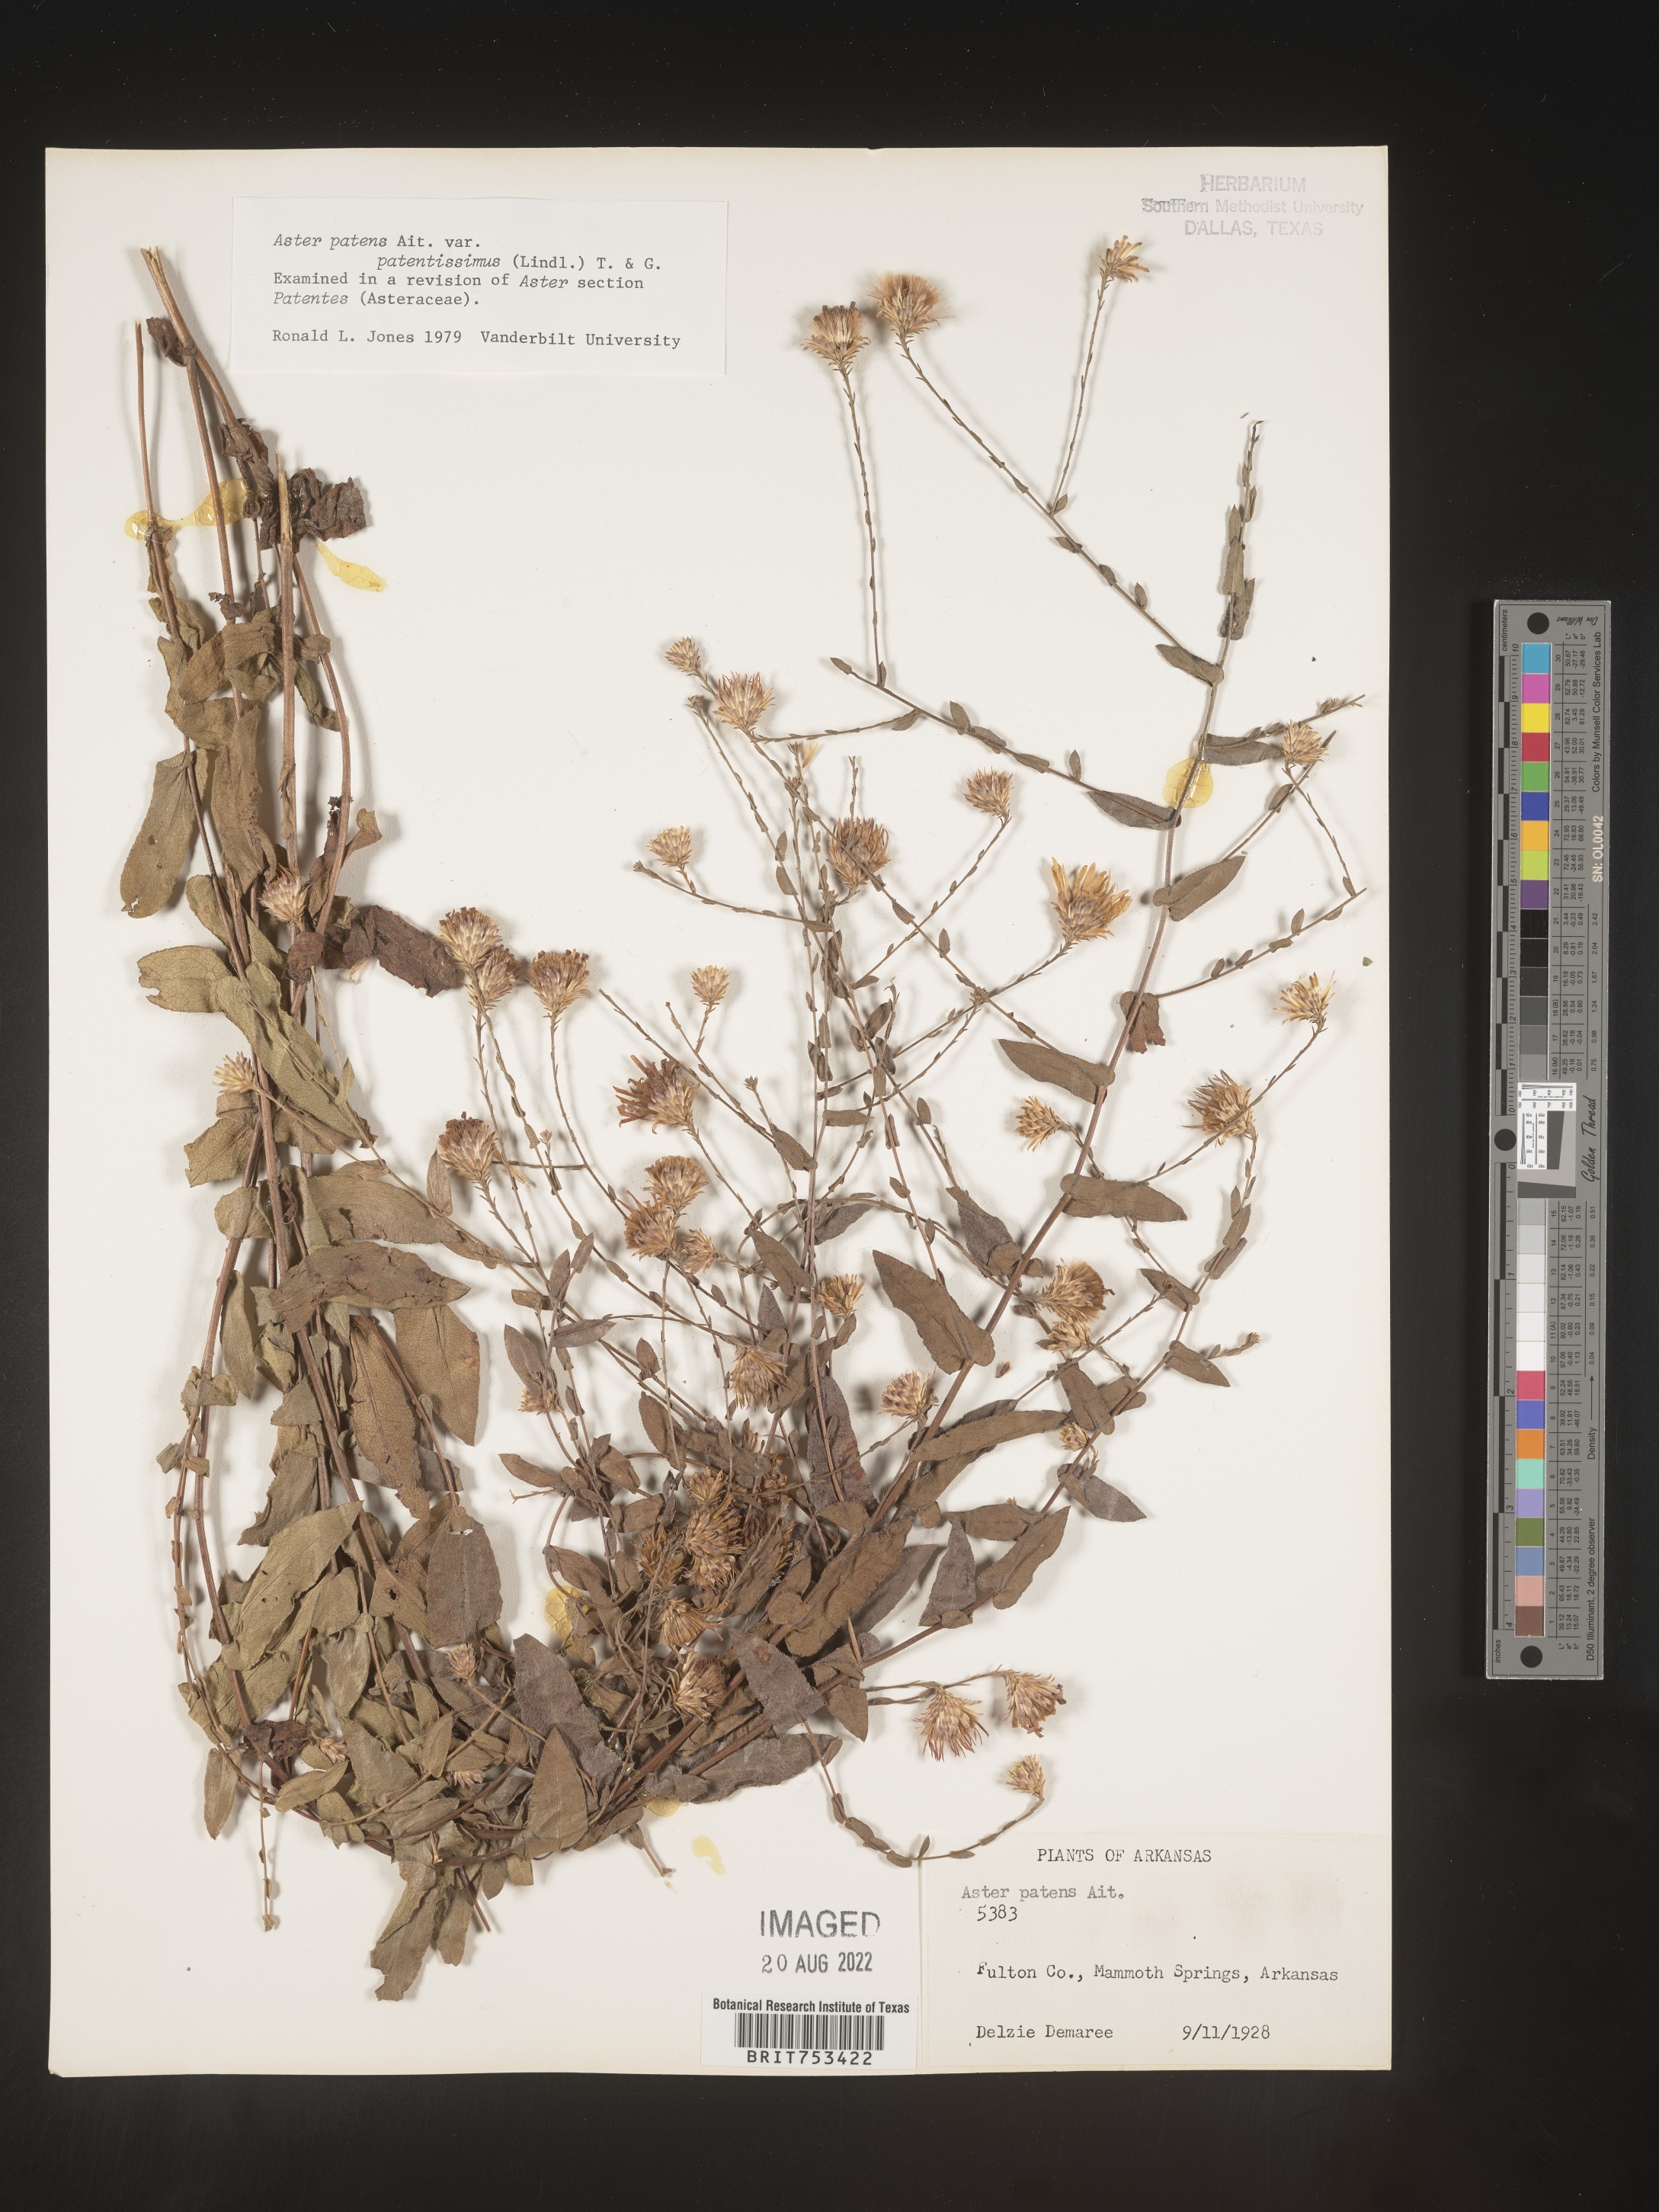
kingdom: Plantae
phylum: Tracheophyta
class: Magnoliopsida
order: Asterales
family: Asteraceae
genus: Symphyotrichum
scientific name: Symphyotrichum patens
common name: Late purple aster
